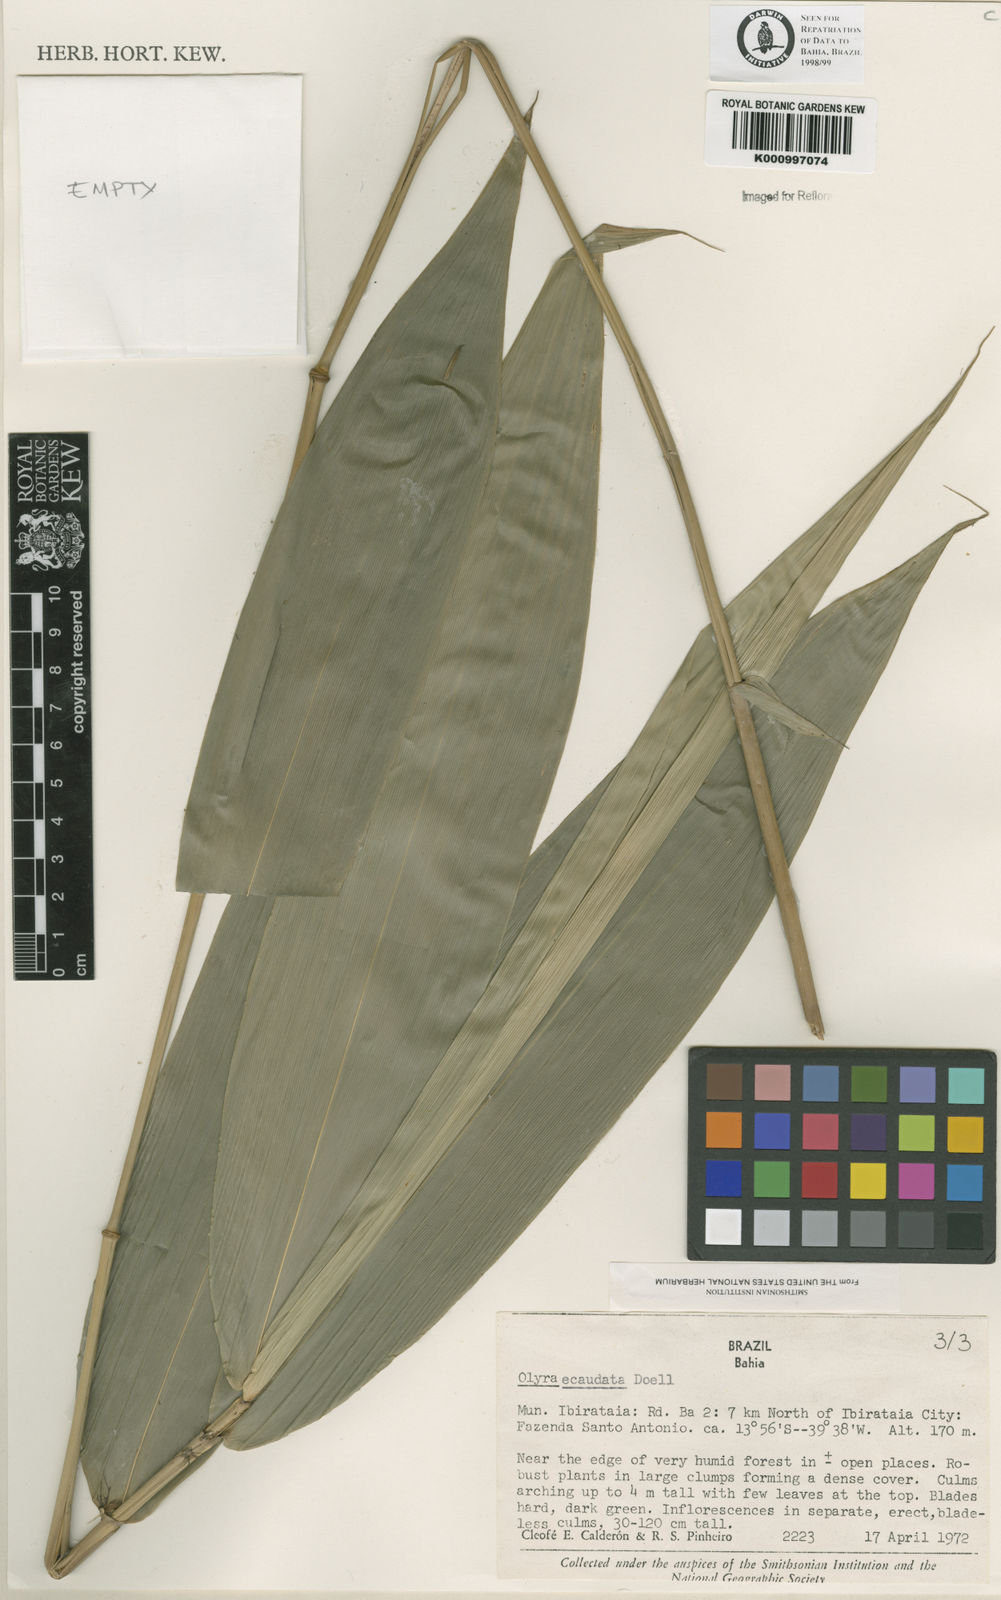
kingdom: Plantae
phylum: Tracheophyta
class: Liliopsida
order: Poales
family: Poaceae
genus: Olyra
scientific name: Olyra
